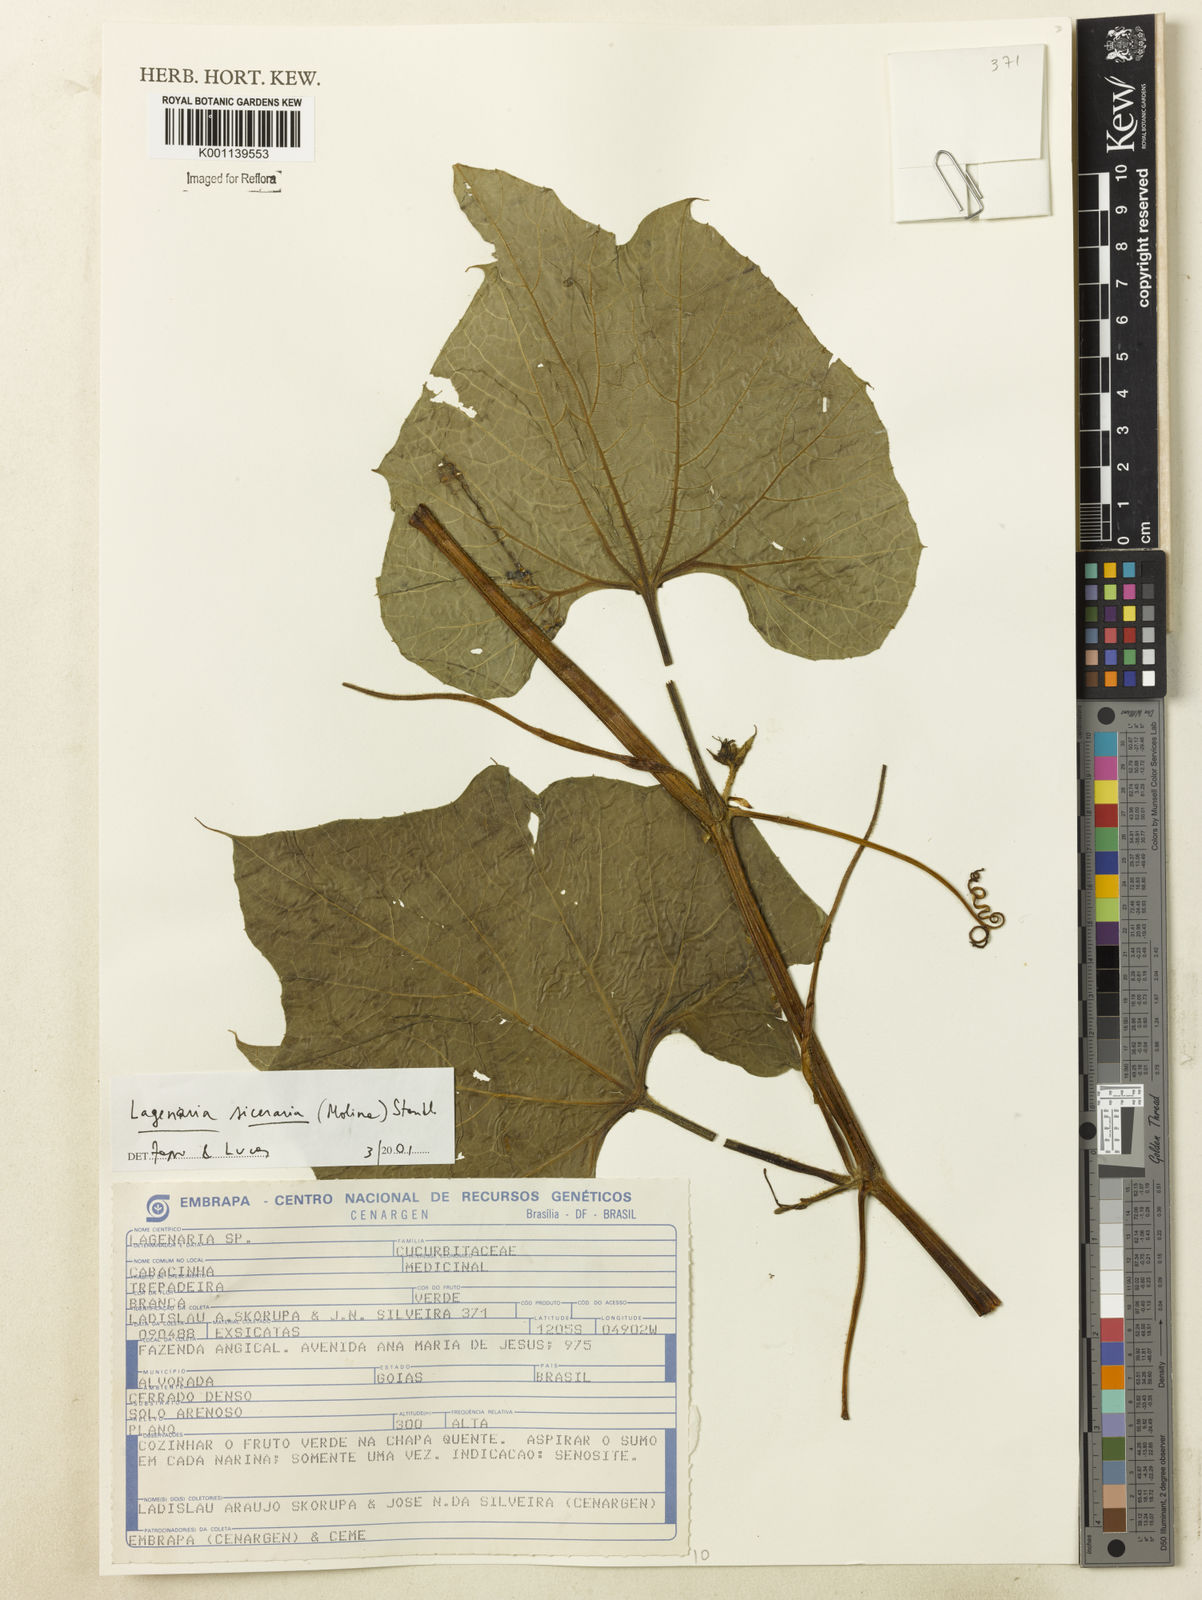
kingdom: Plantae
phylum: Tracheophyta
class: Magnoliopsida
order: Cucurbitales
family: Cucurbitaceae
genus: Lagenaria
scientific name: Lagenaria siceraria
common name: Bottle gourd
